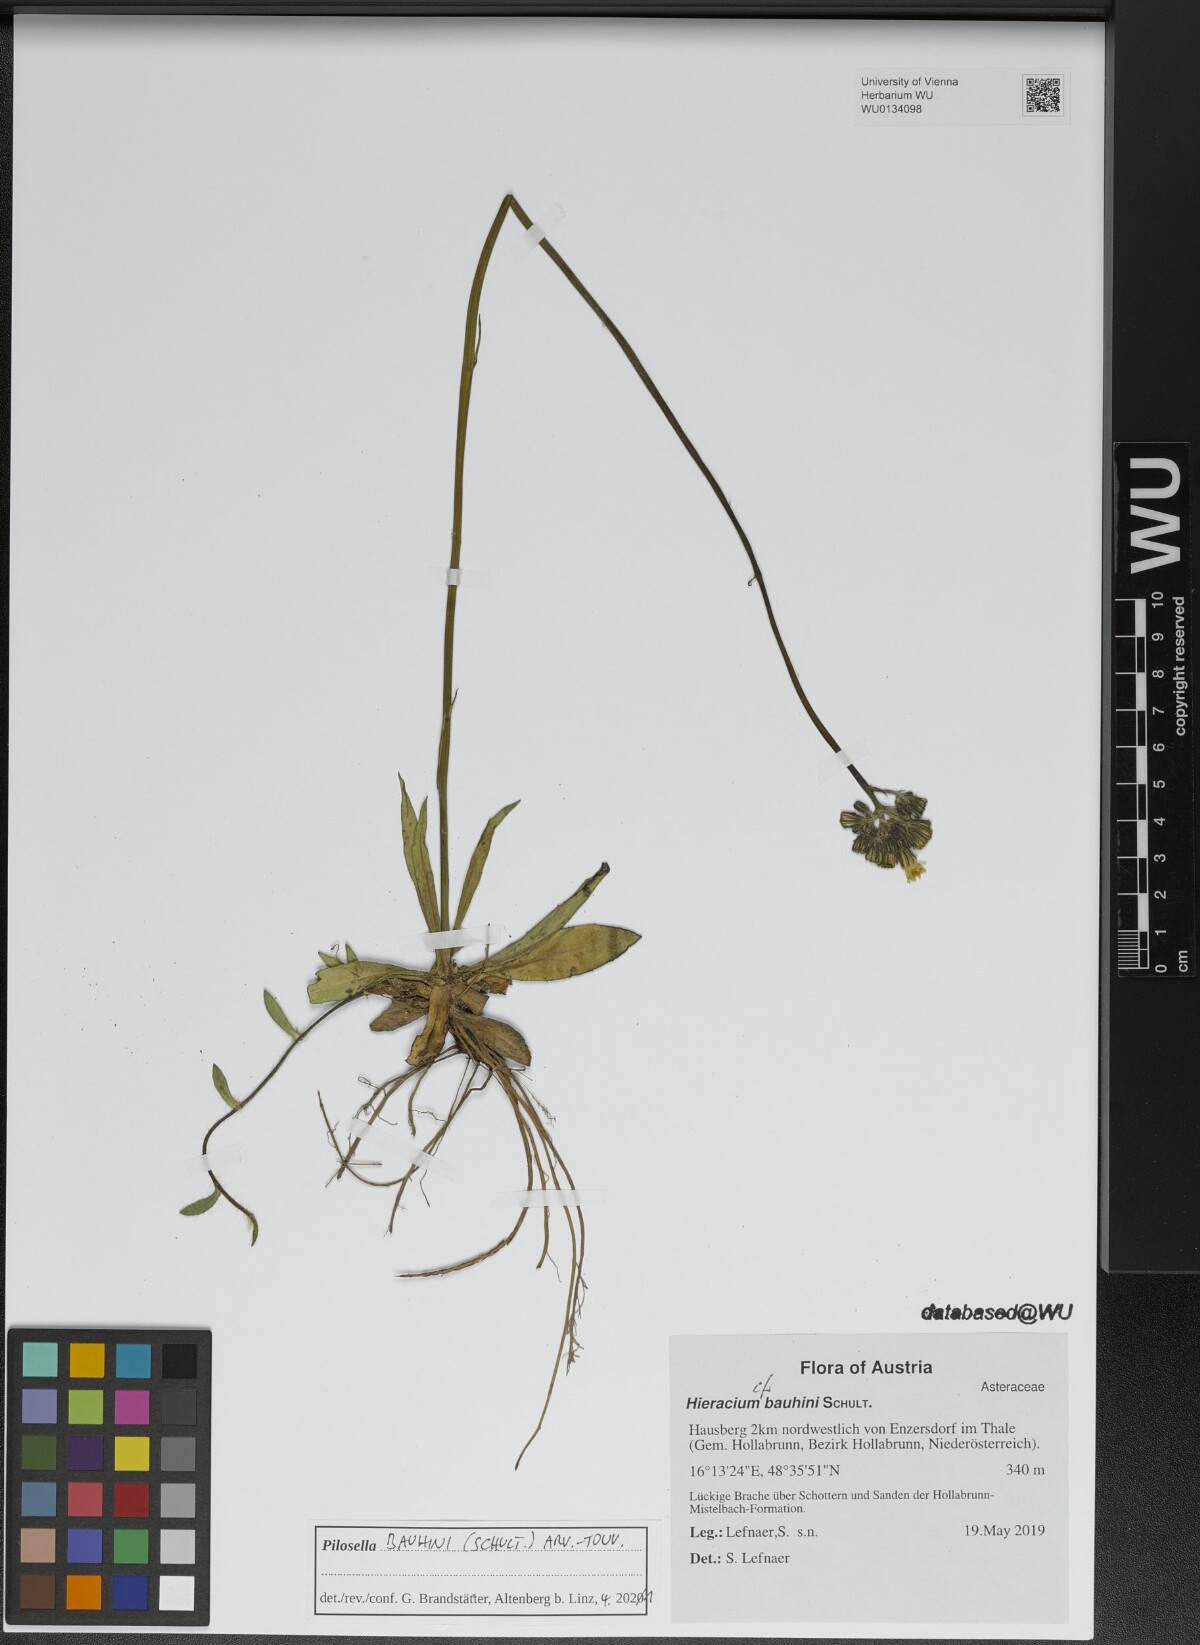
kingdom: Plantae
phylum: Tracheophyta
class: Magnoliopsida
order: Asterales
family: Asteraceae
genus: Pilosella
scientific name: Pilosella bauhini
